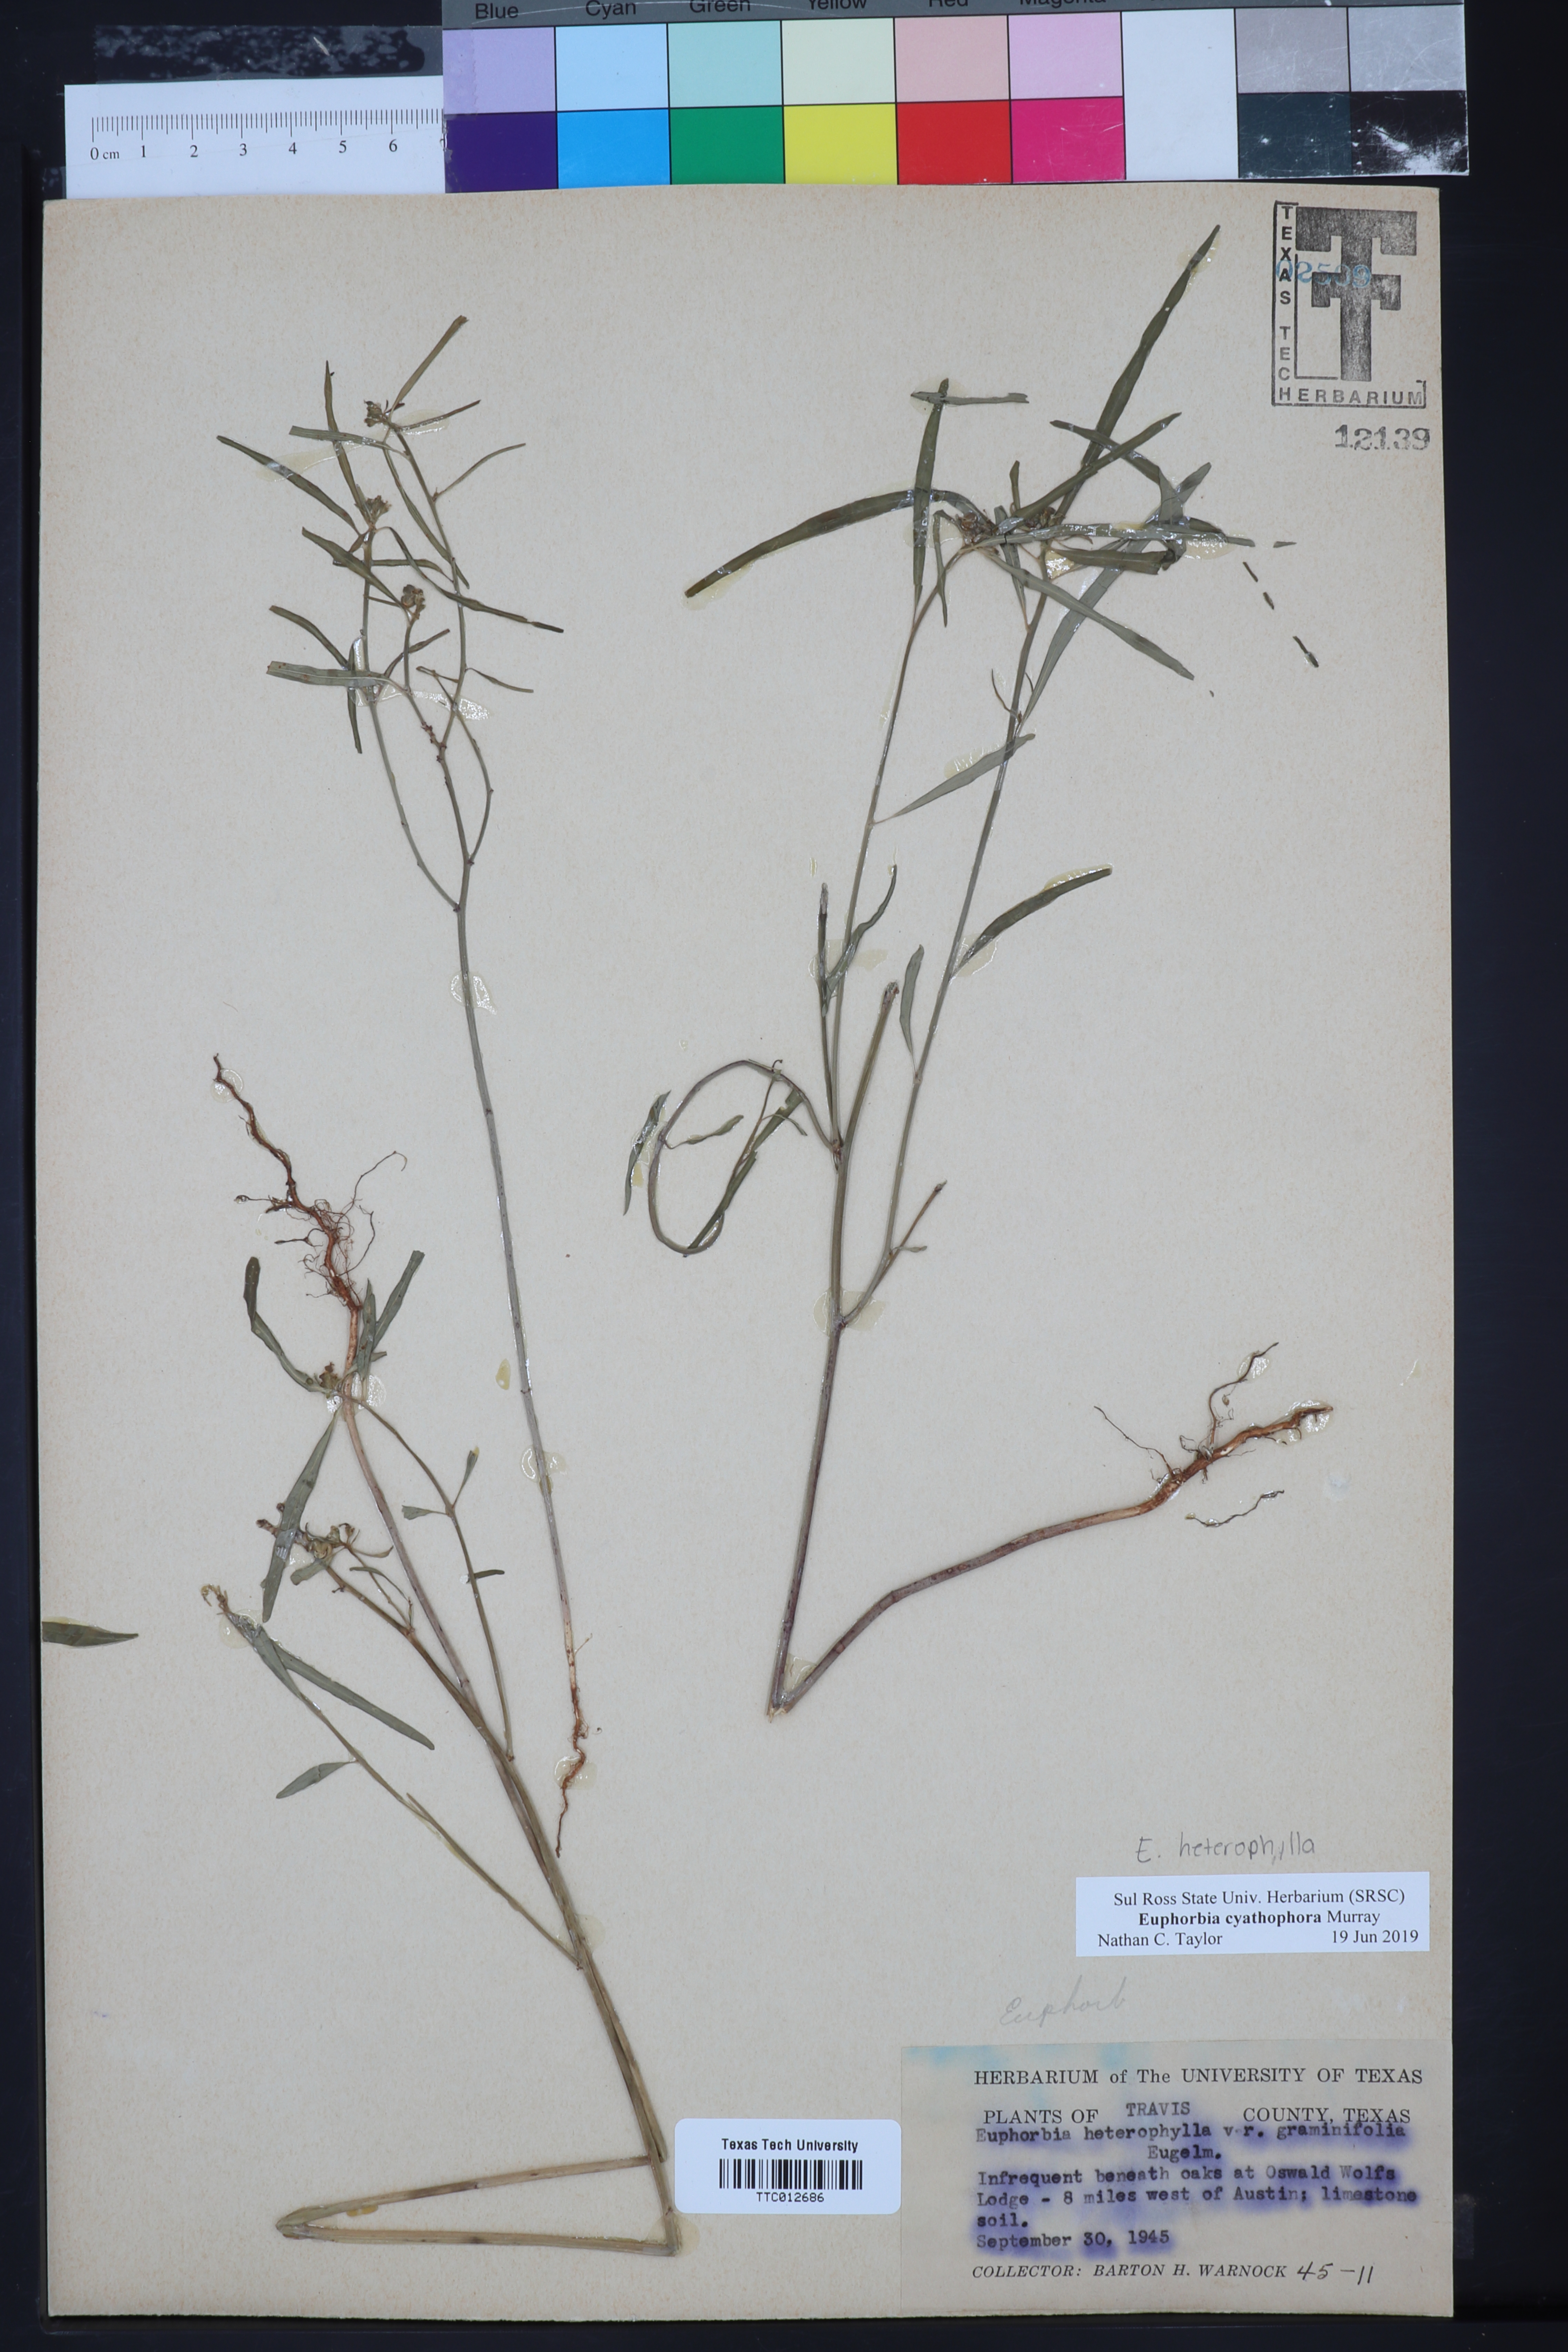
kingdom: Plantae
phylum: Tracheophyta
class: Magnoliopsida
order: Malpighiales
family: Euphorbiaceae
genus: Euphorbia
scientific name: Euphorbia heterophylla
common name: Mexican fireplant
